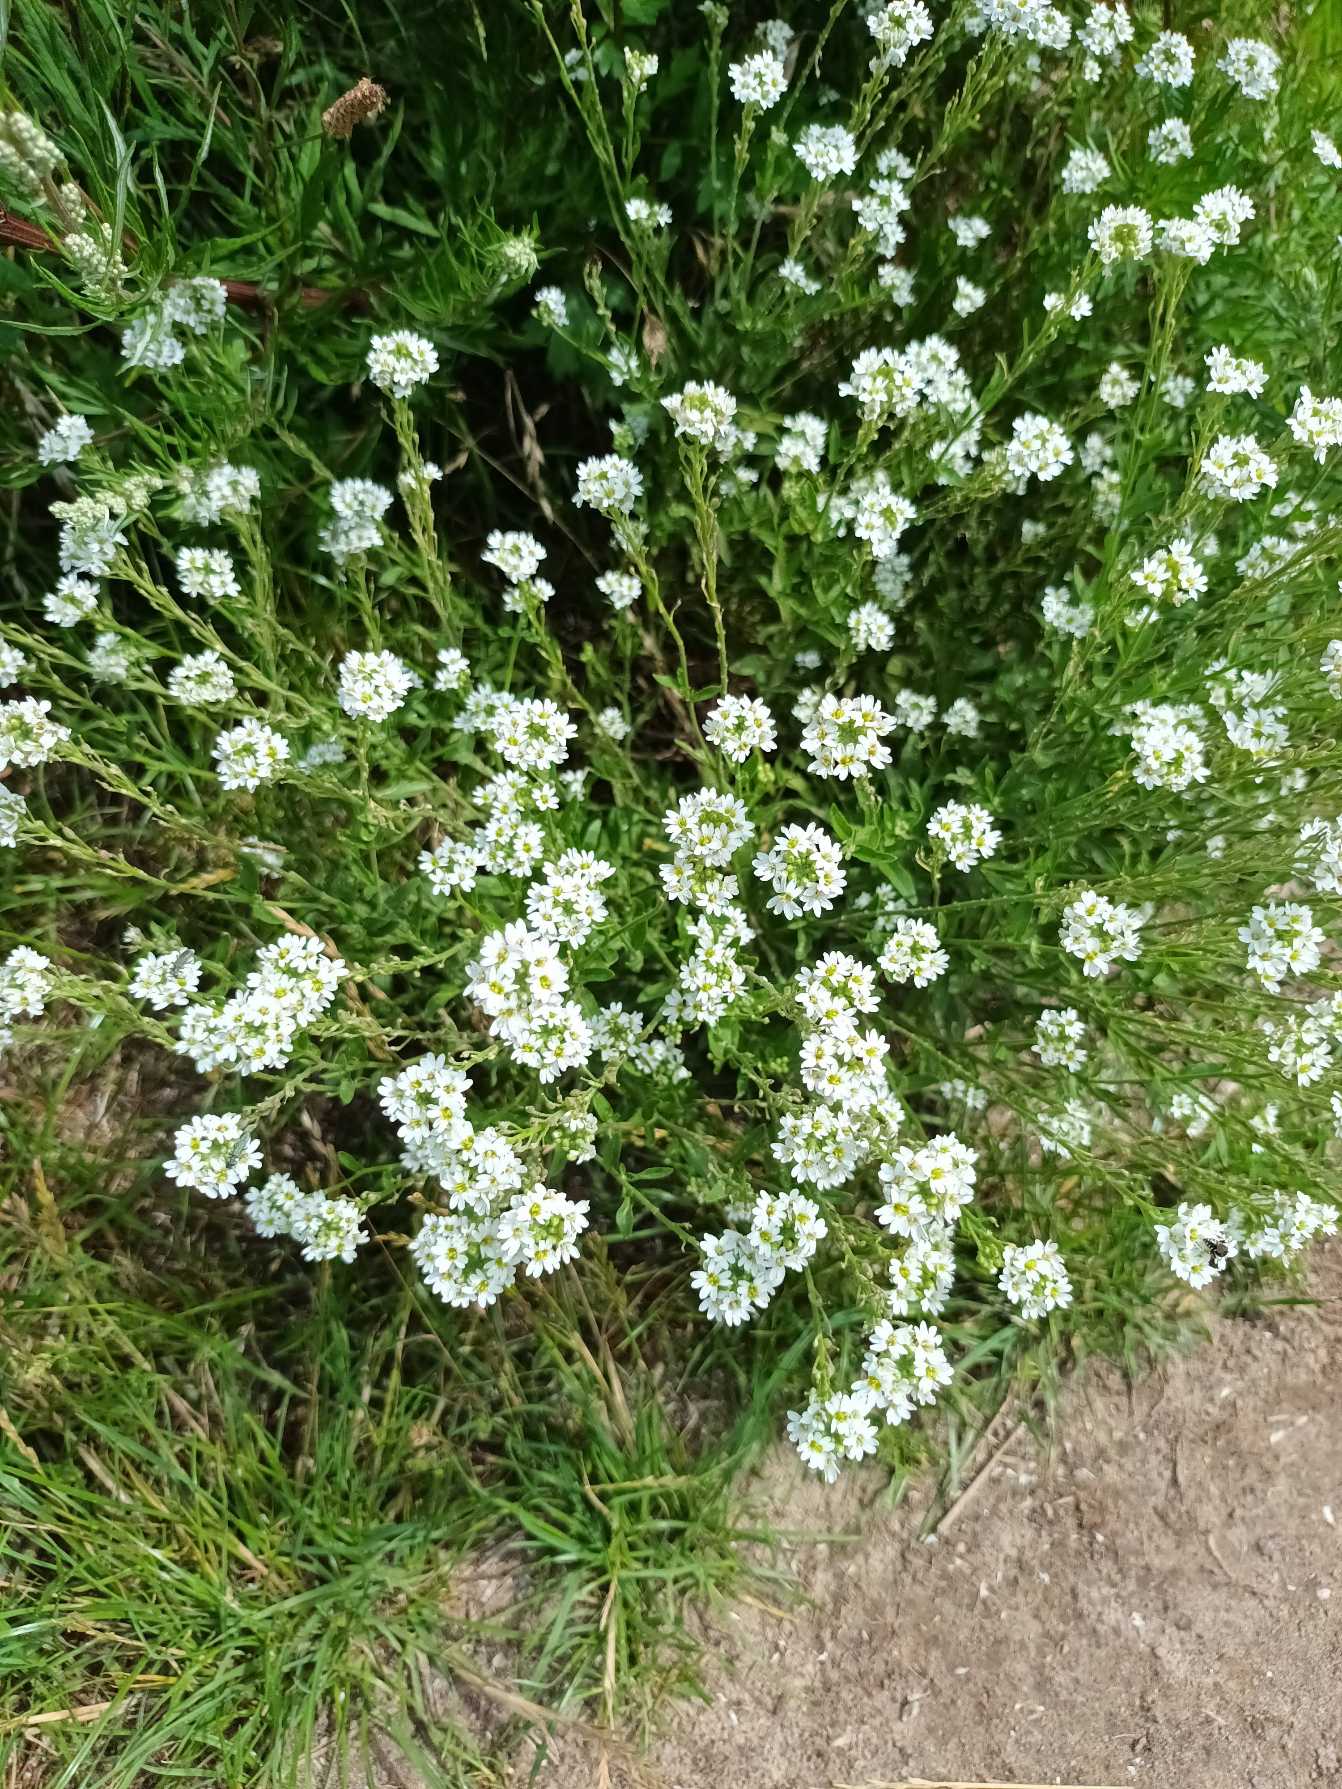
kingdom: Plantae
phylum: Tracheophyta
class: Magnoliopsida
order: Brassicales
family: Brassicaceae
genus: Berteroa
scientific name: Berteroa incana
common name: Kløvplade
